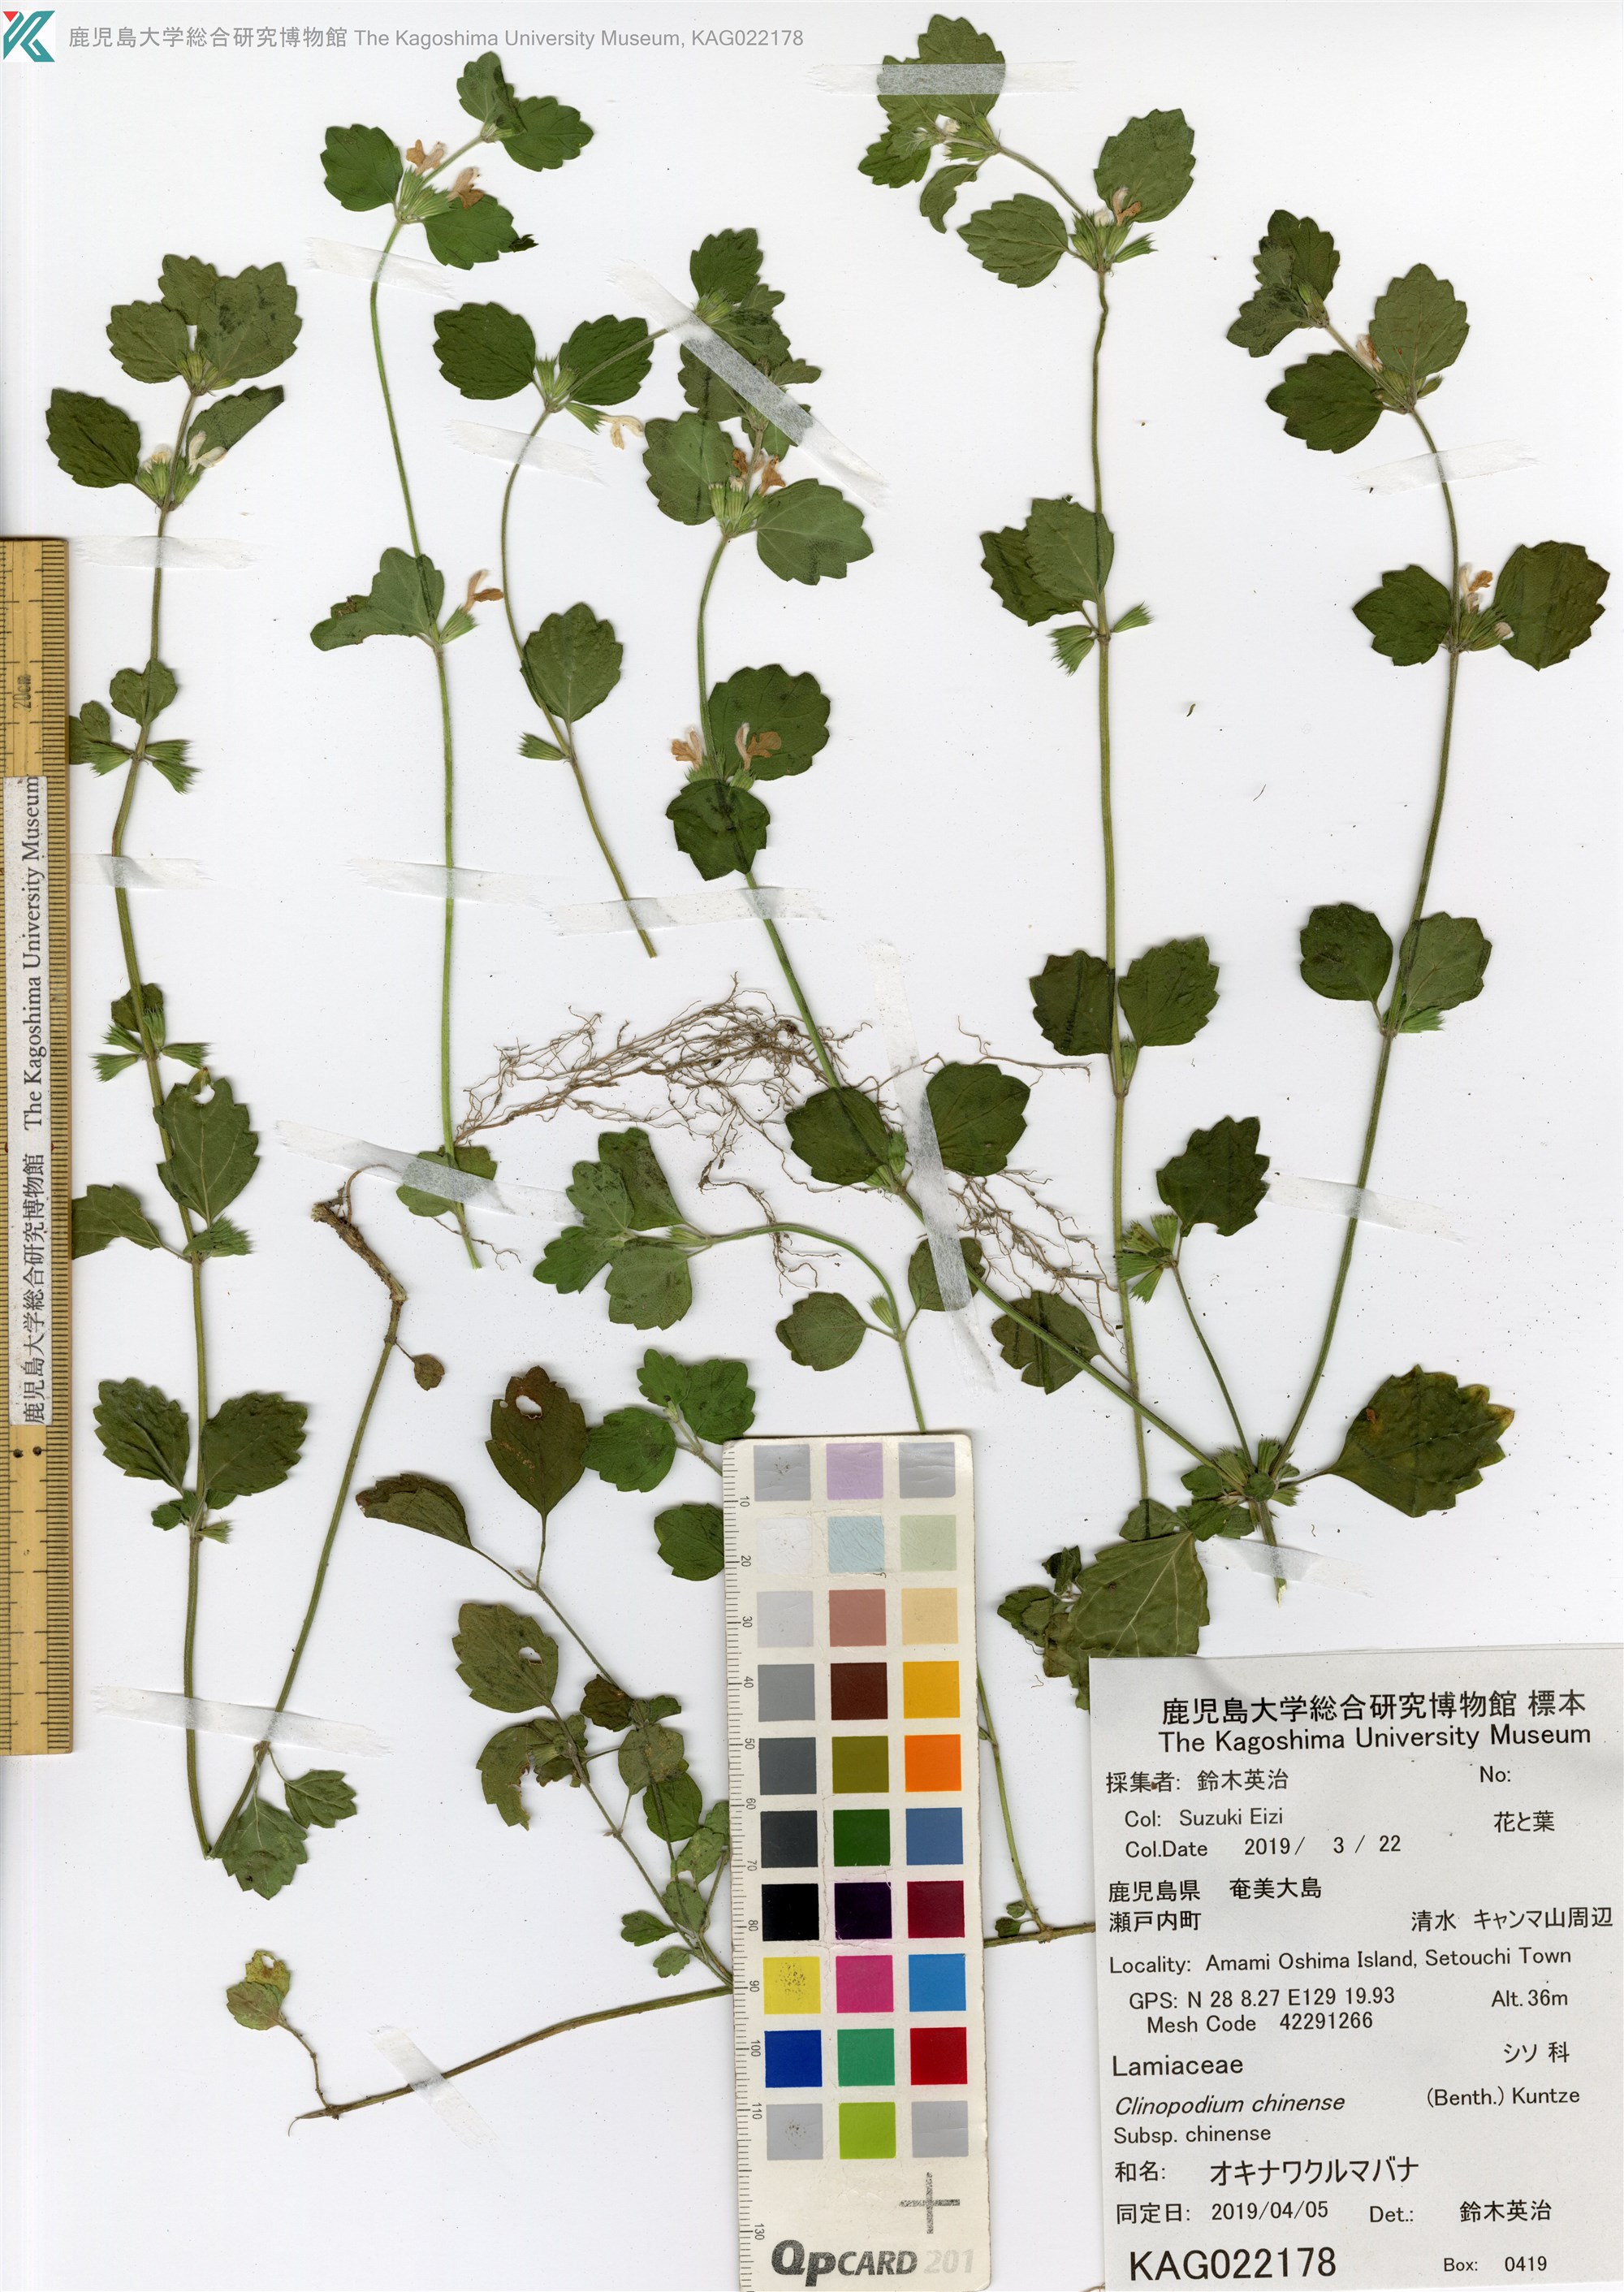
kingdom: Plantae
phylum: Tracheophyta
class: Magnoliopsida
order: Lamiales
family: Lamiaceae
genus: Leucas
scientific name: Leucas chinensis
